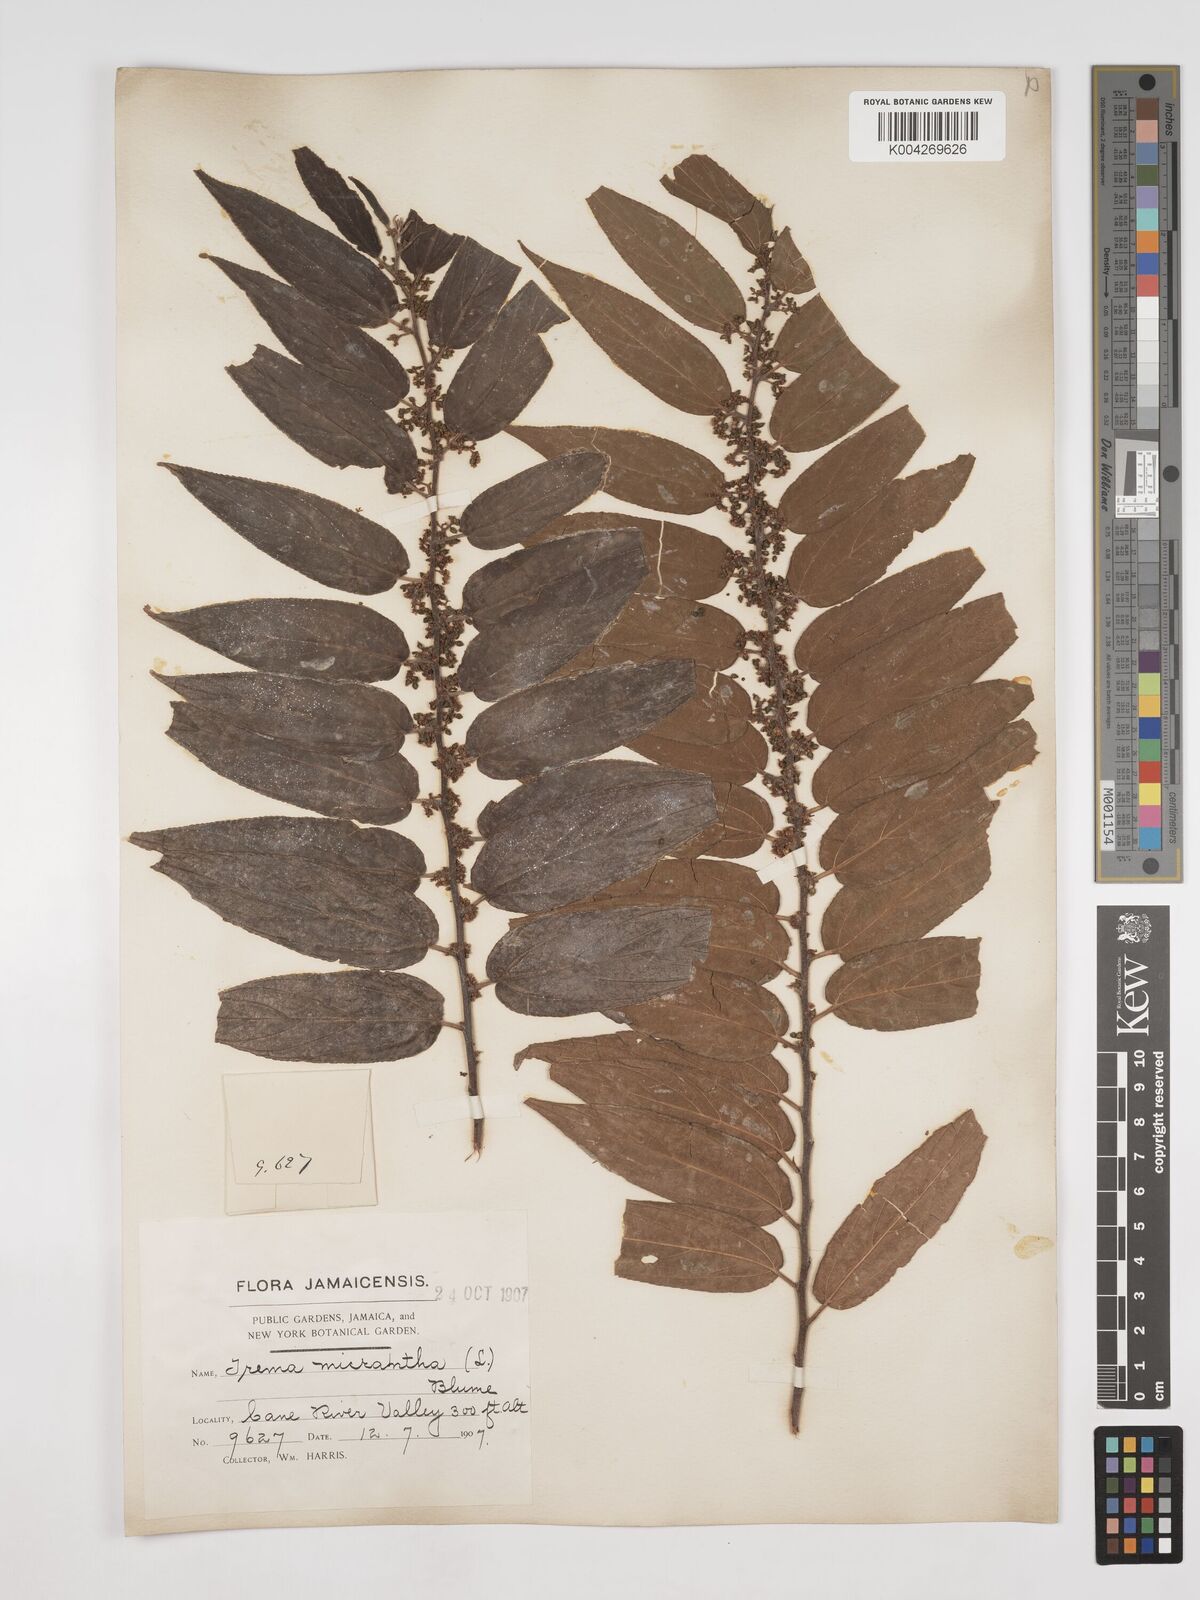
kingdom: Plantae
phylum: Tracheophyta
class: Magnoliopsida
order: Rosales
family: Cannabaceae
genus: Trema
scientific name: Trema micranthum
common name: Jamaican nettletree
